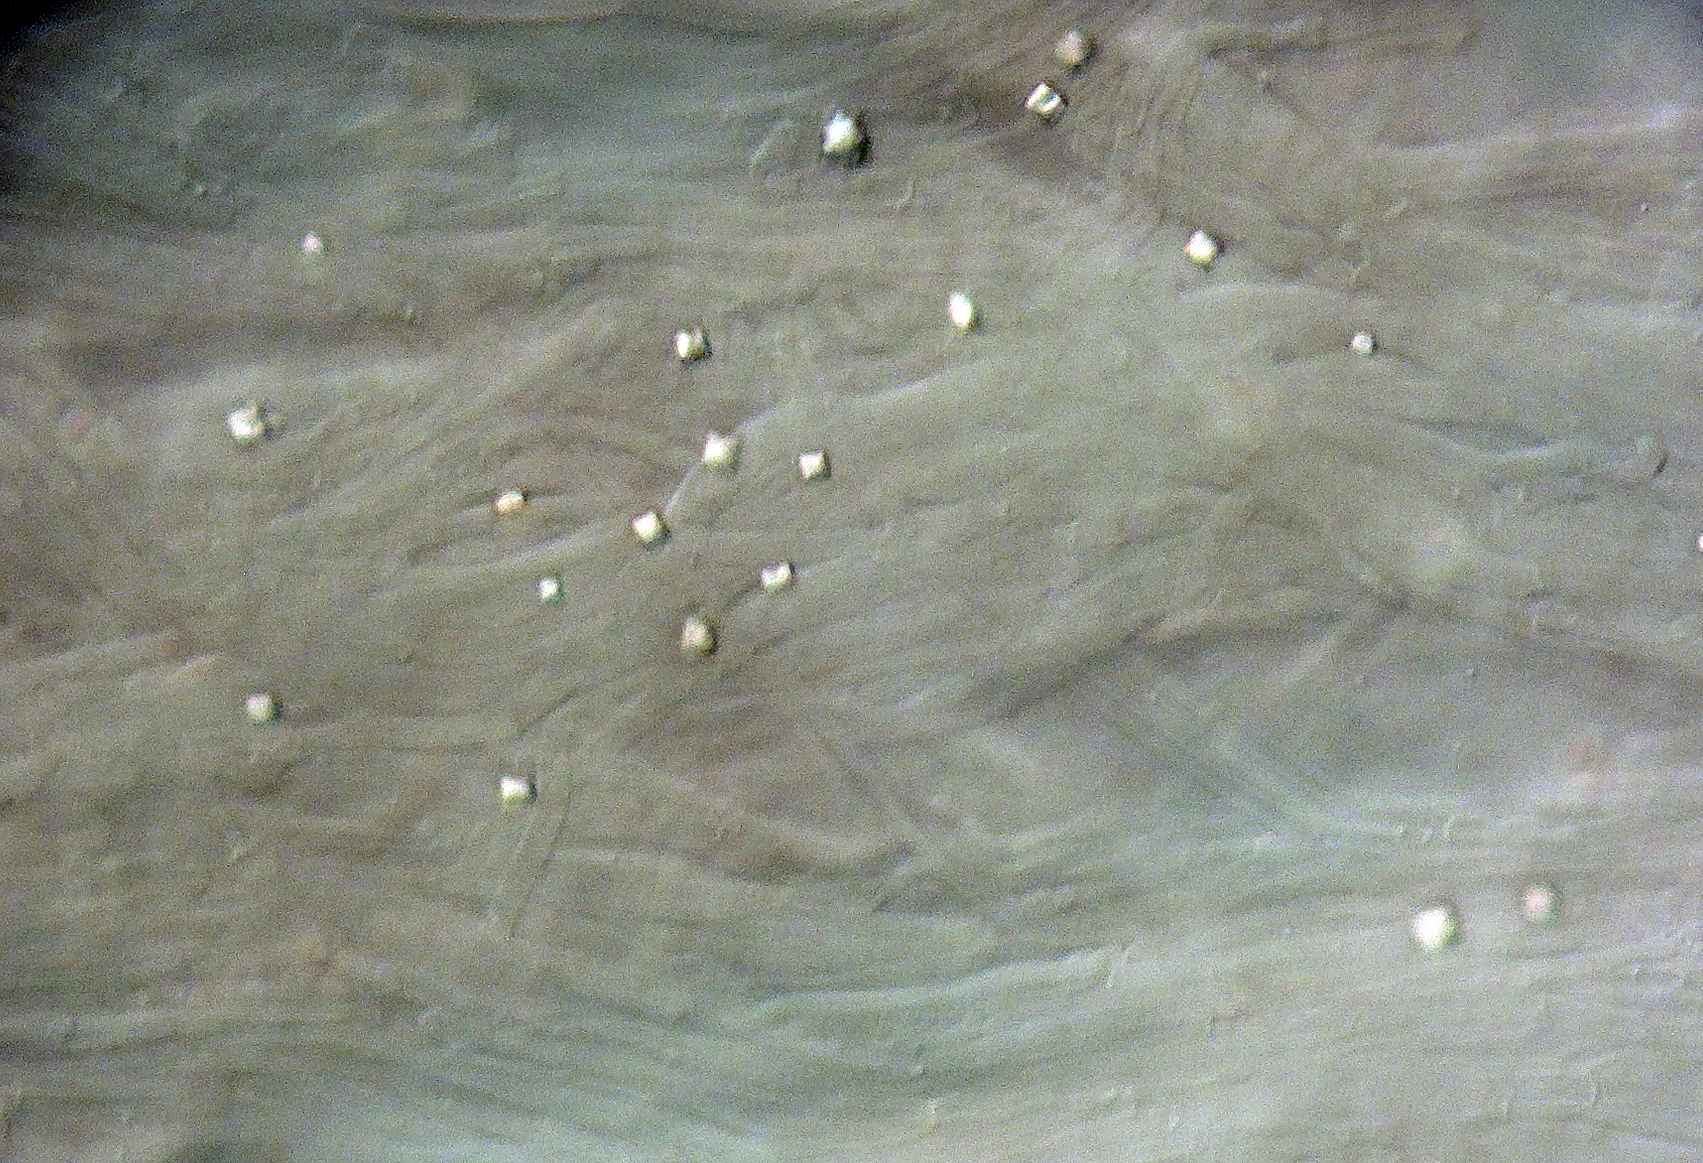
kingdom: Fungi
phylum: Basidiomycota
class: Agaricomycetes
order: Agaricales
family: Clavariaceae
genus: Ramariopsis
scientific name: Ramariopsis flavescens
